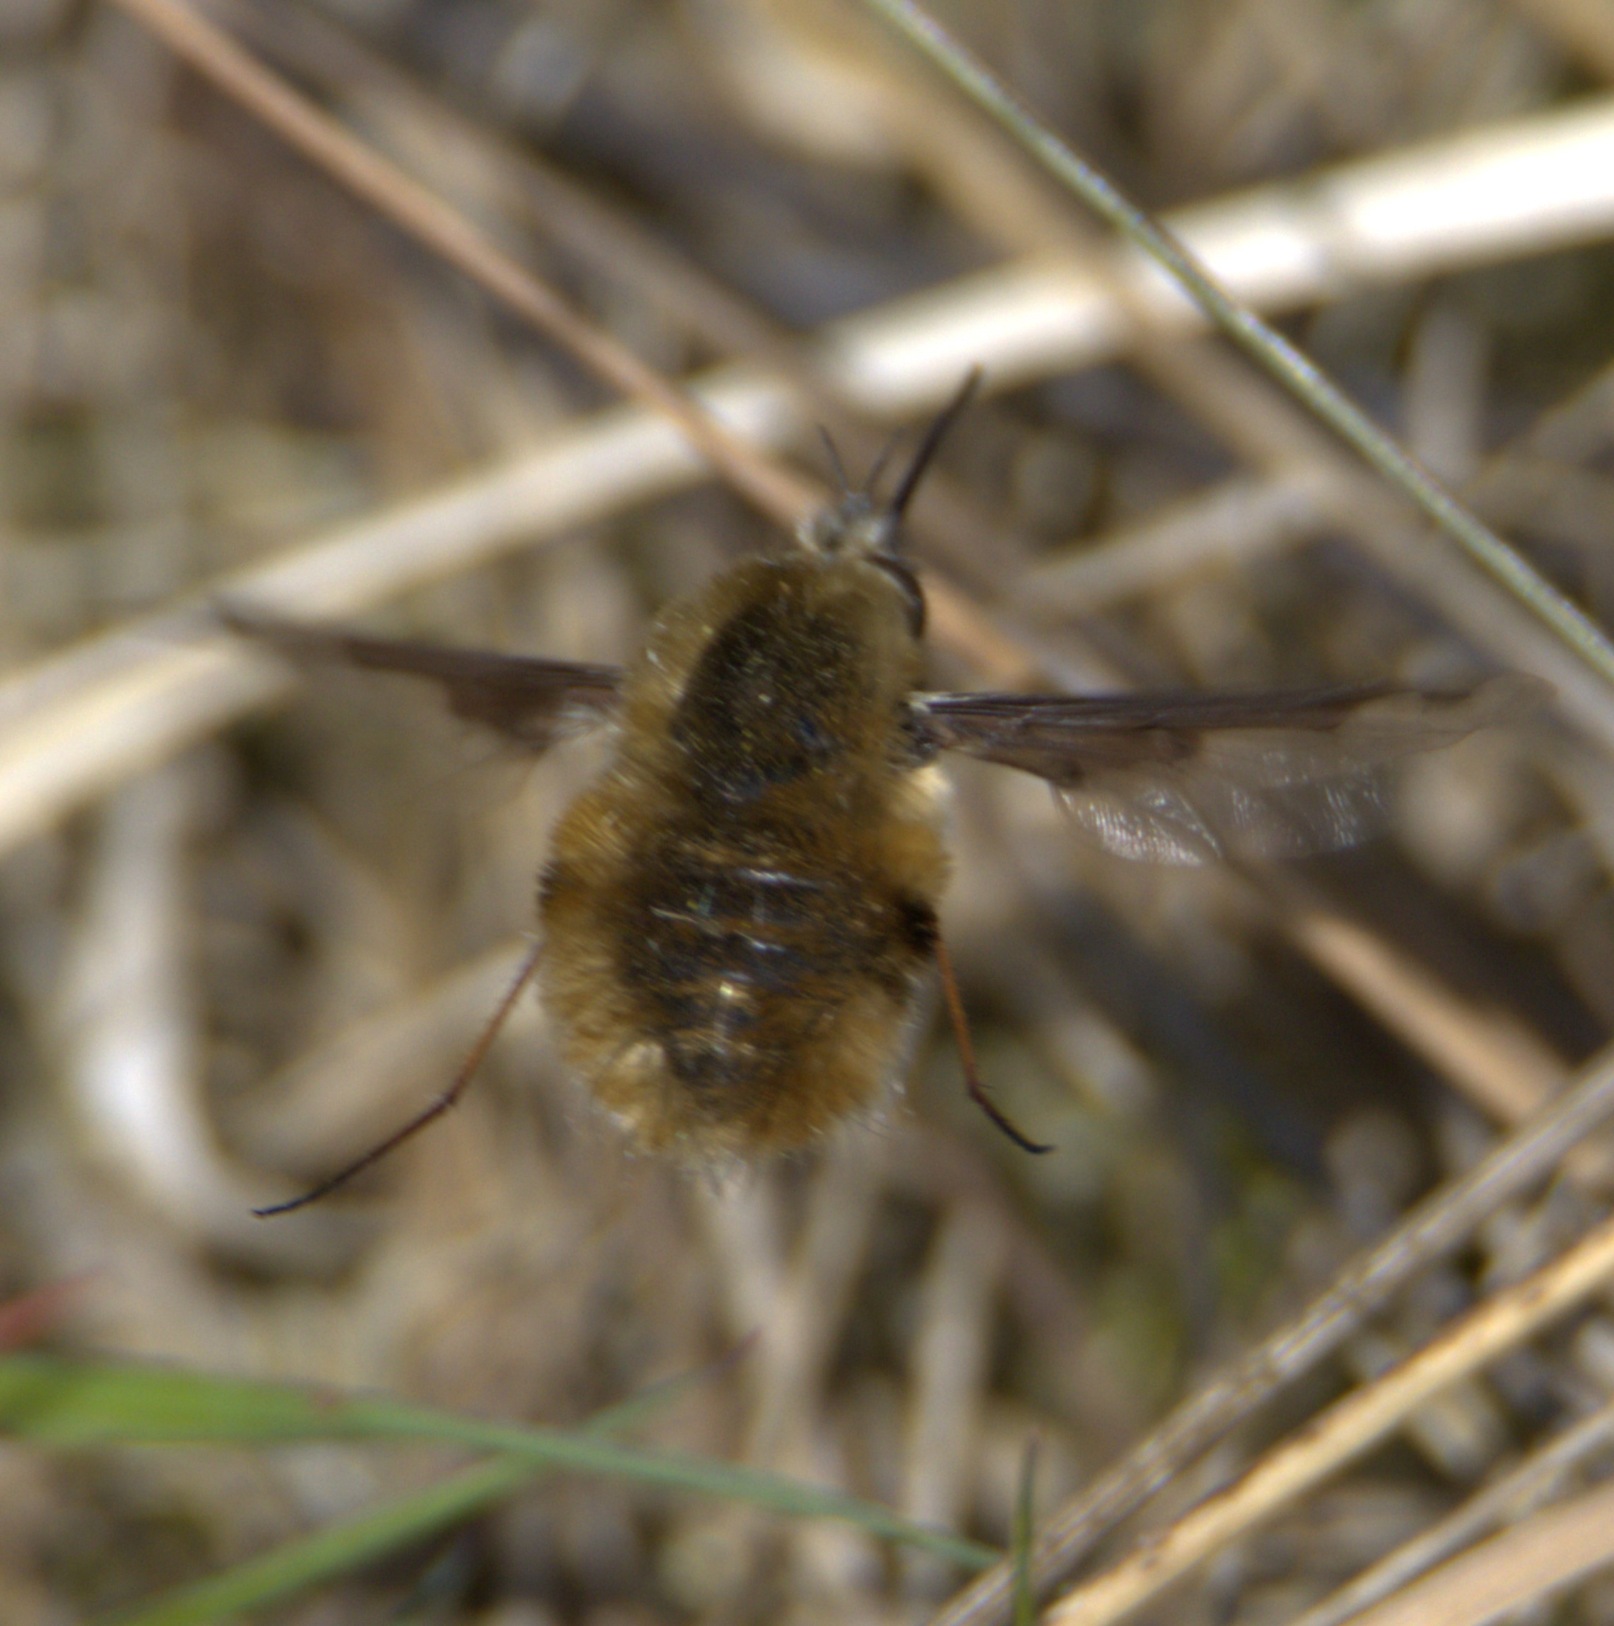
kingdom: Animalia
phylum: Arthropoda
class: Insecta
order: Diptera
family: Bombyliidae
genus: Bombylius
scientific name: Bombylius major
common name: Stor humleflue
